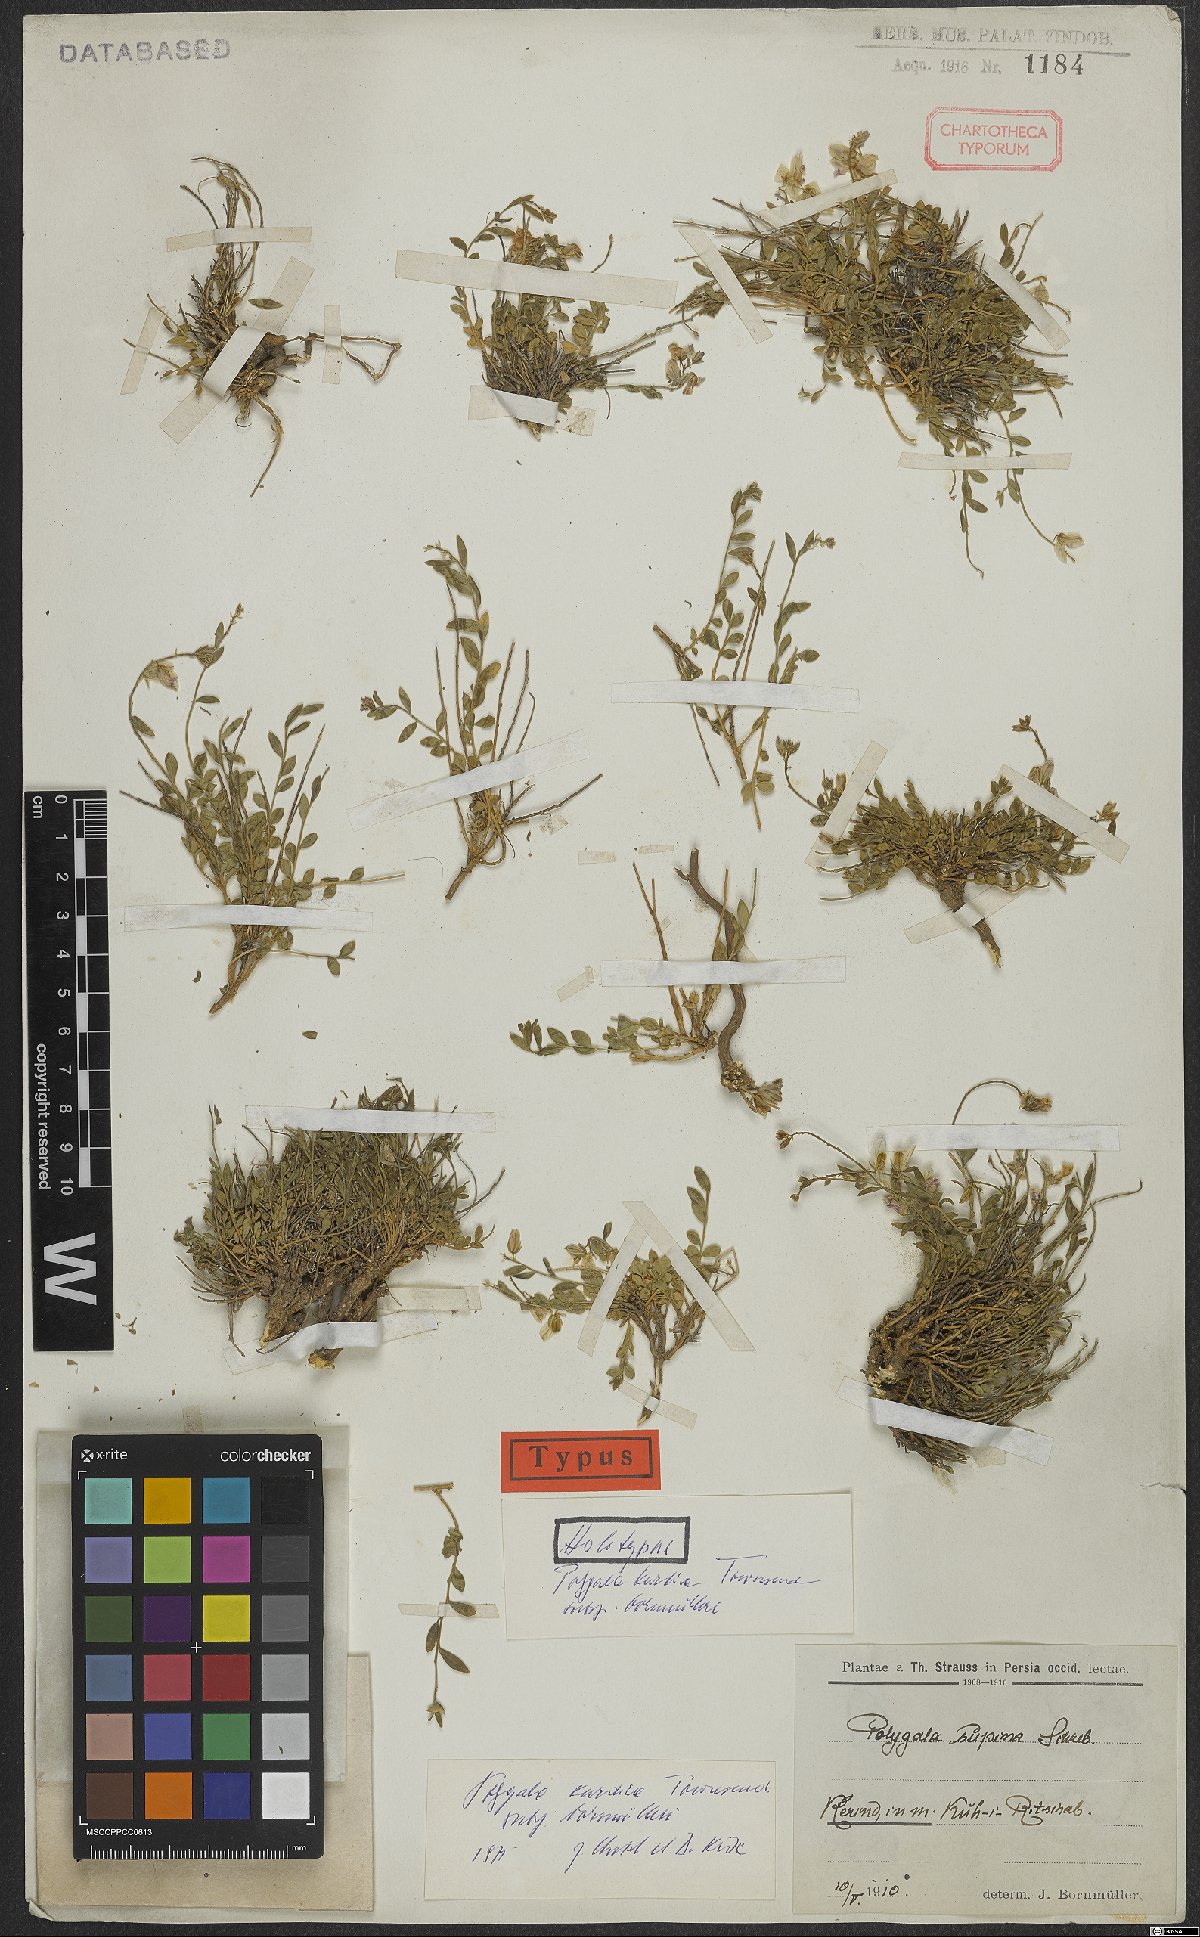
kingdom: Plantae
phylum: Tracheophyta
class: Magnoliopsida
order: Fabales
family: Polygalaceae
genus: Polygala
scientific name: Polygala kurdica
